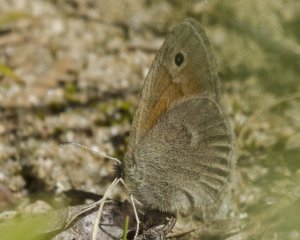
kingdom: Animalia
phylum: Arthropoda
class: Insecta
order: Lepidoptera
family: Nymphalidae
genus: Coenonympha
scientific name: Coenonympha tullia
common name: Large Heath
